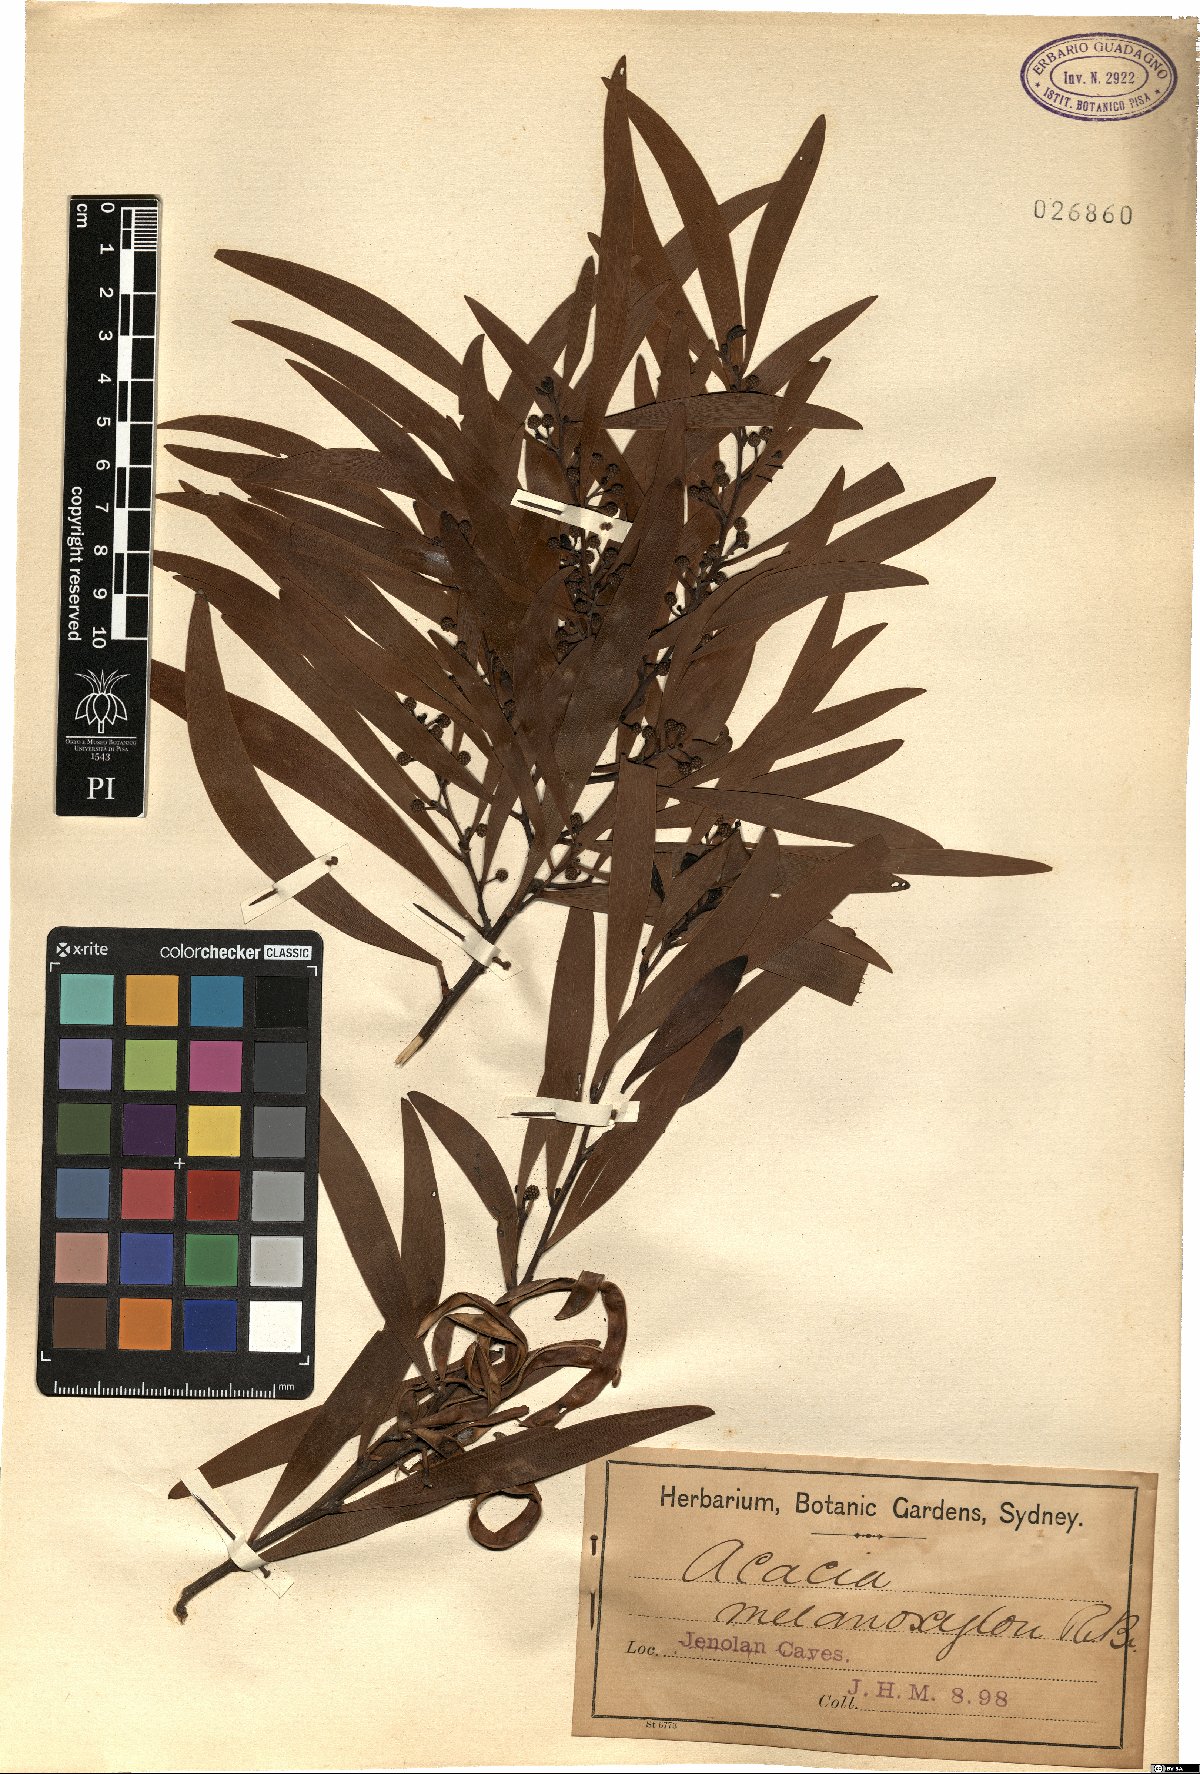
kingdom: Plantae
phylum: Tracheophyta
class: Magnoliopsida
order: Fabales
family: Fabaceae
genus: Acacia
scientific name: Acacia melanoxylon
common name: Blackwood
